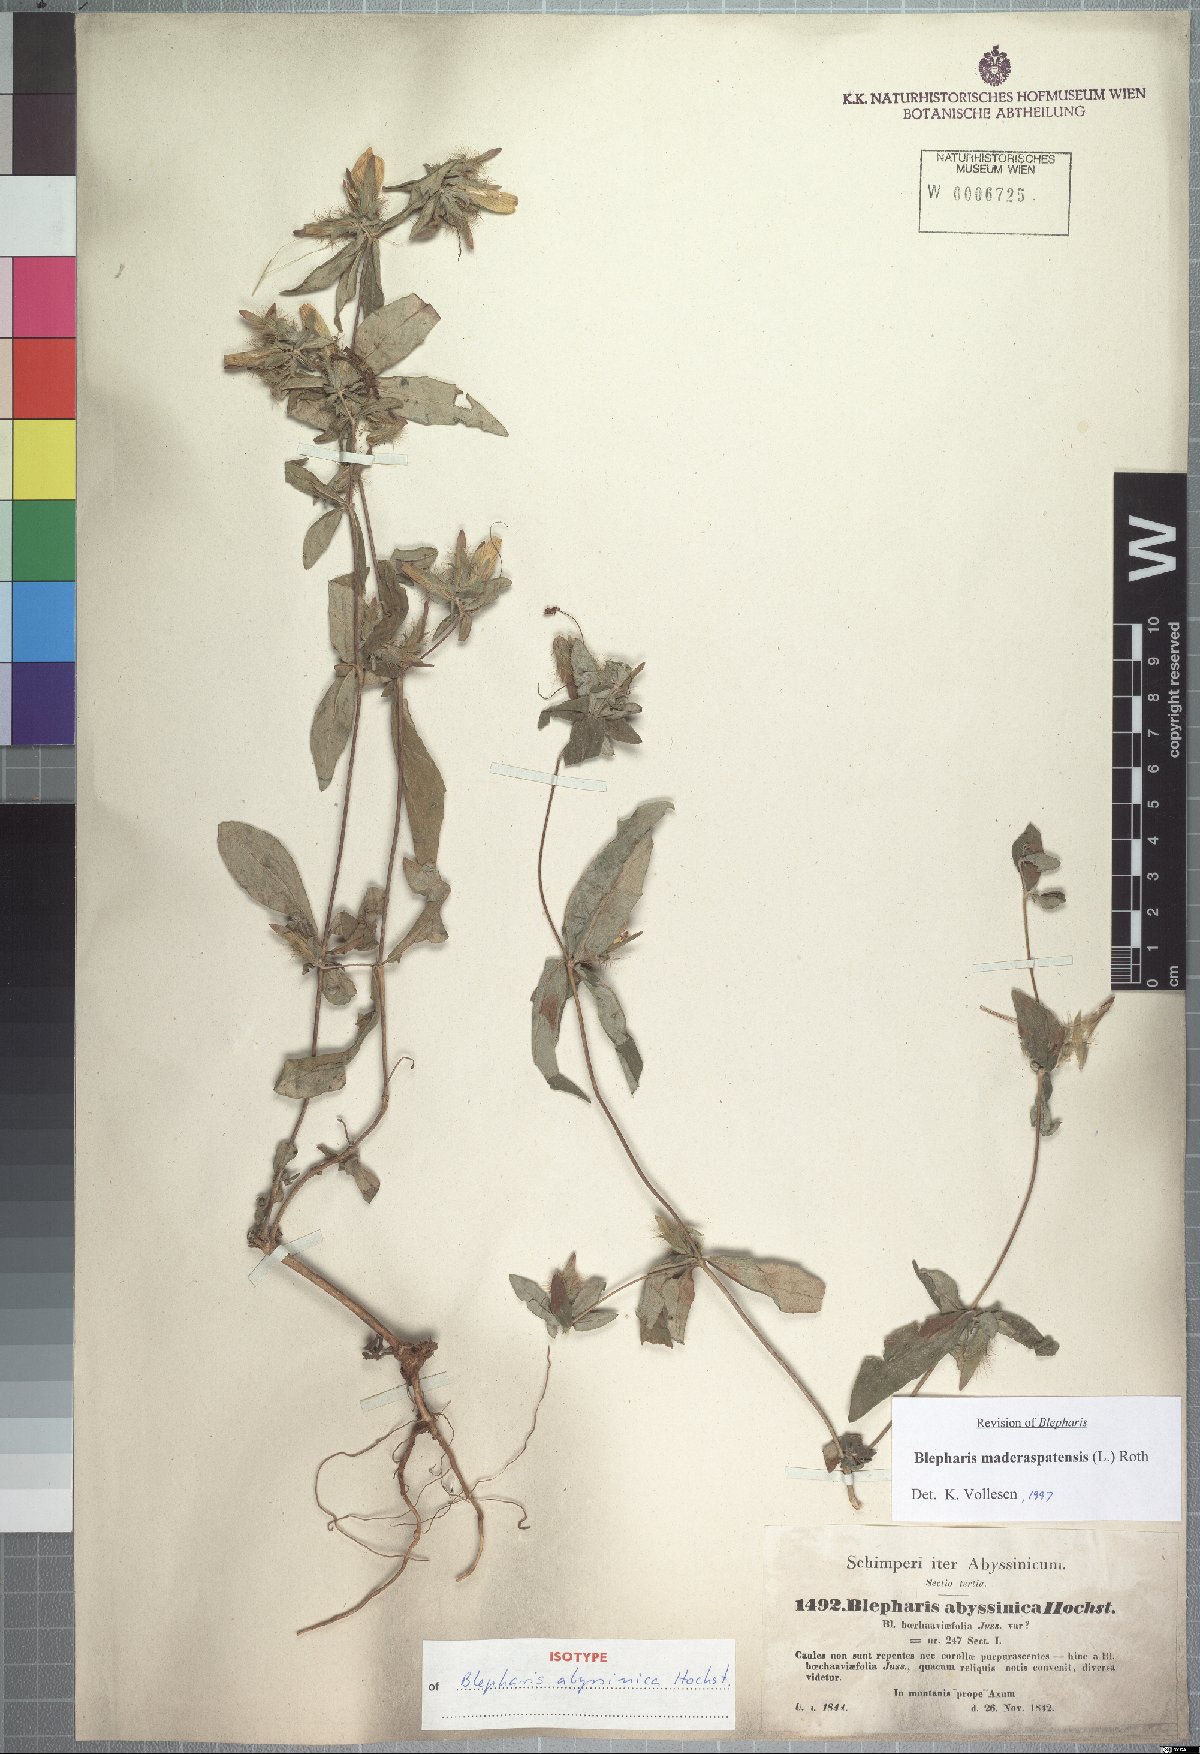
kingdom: Plantae
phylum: Tracheophyta
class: Magnoliopsida
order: Lamiales
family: Acanthaceae
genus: Blepharis
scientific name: Blepharis maderaspatensis
